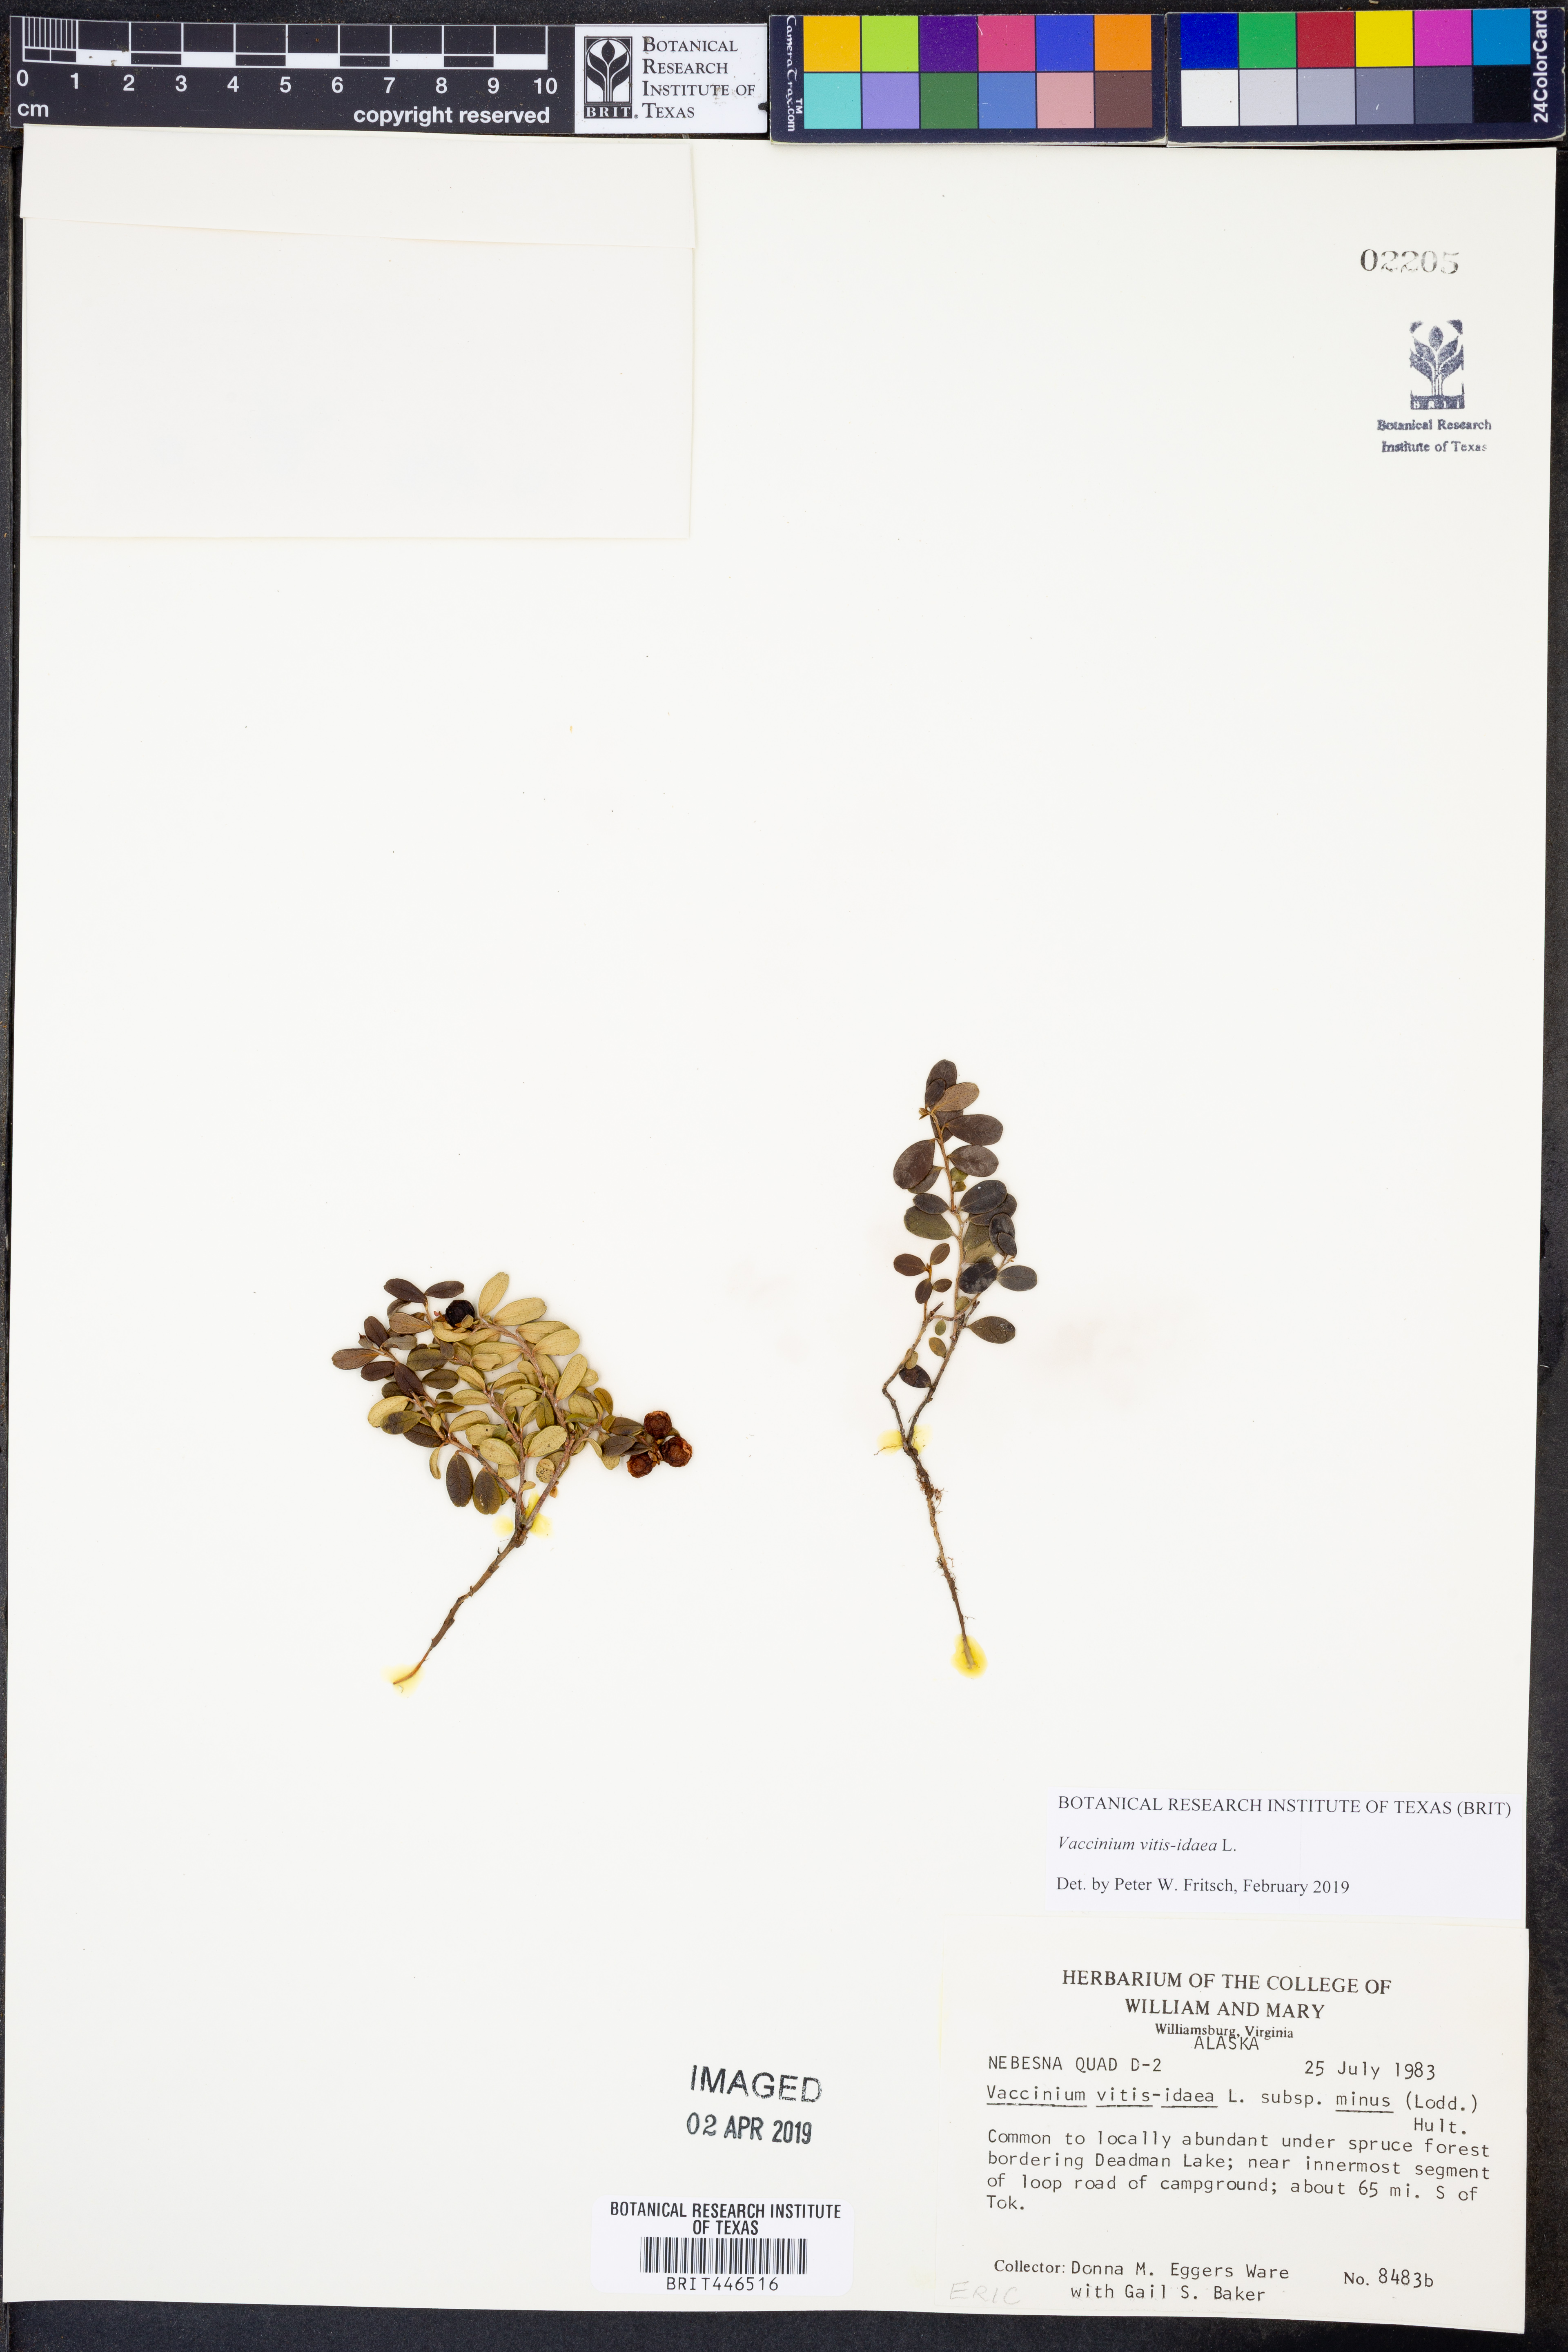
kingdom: Plantae
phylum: Tracheophyta
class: Magnoliopsida
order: Ericales
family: Ericaceae
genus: Vaccinium
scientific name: Vaccinium vitis-idaea
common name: Cowberry
